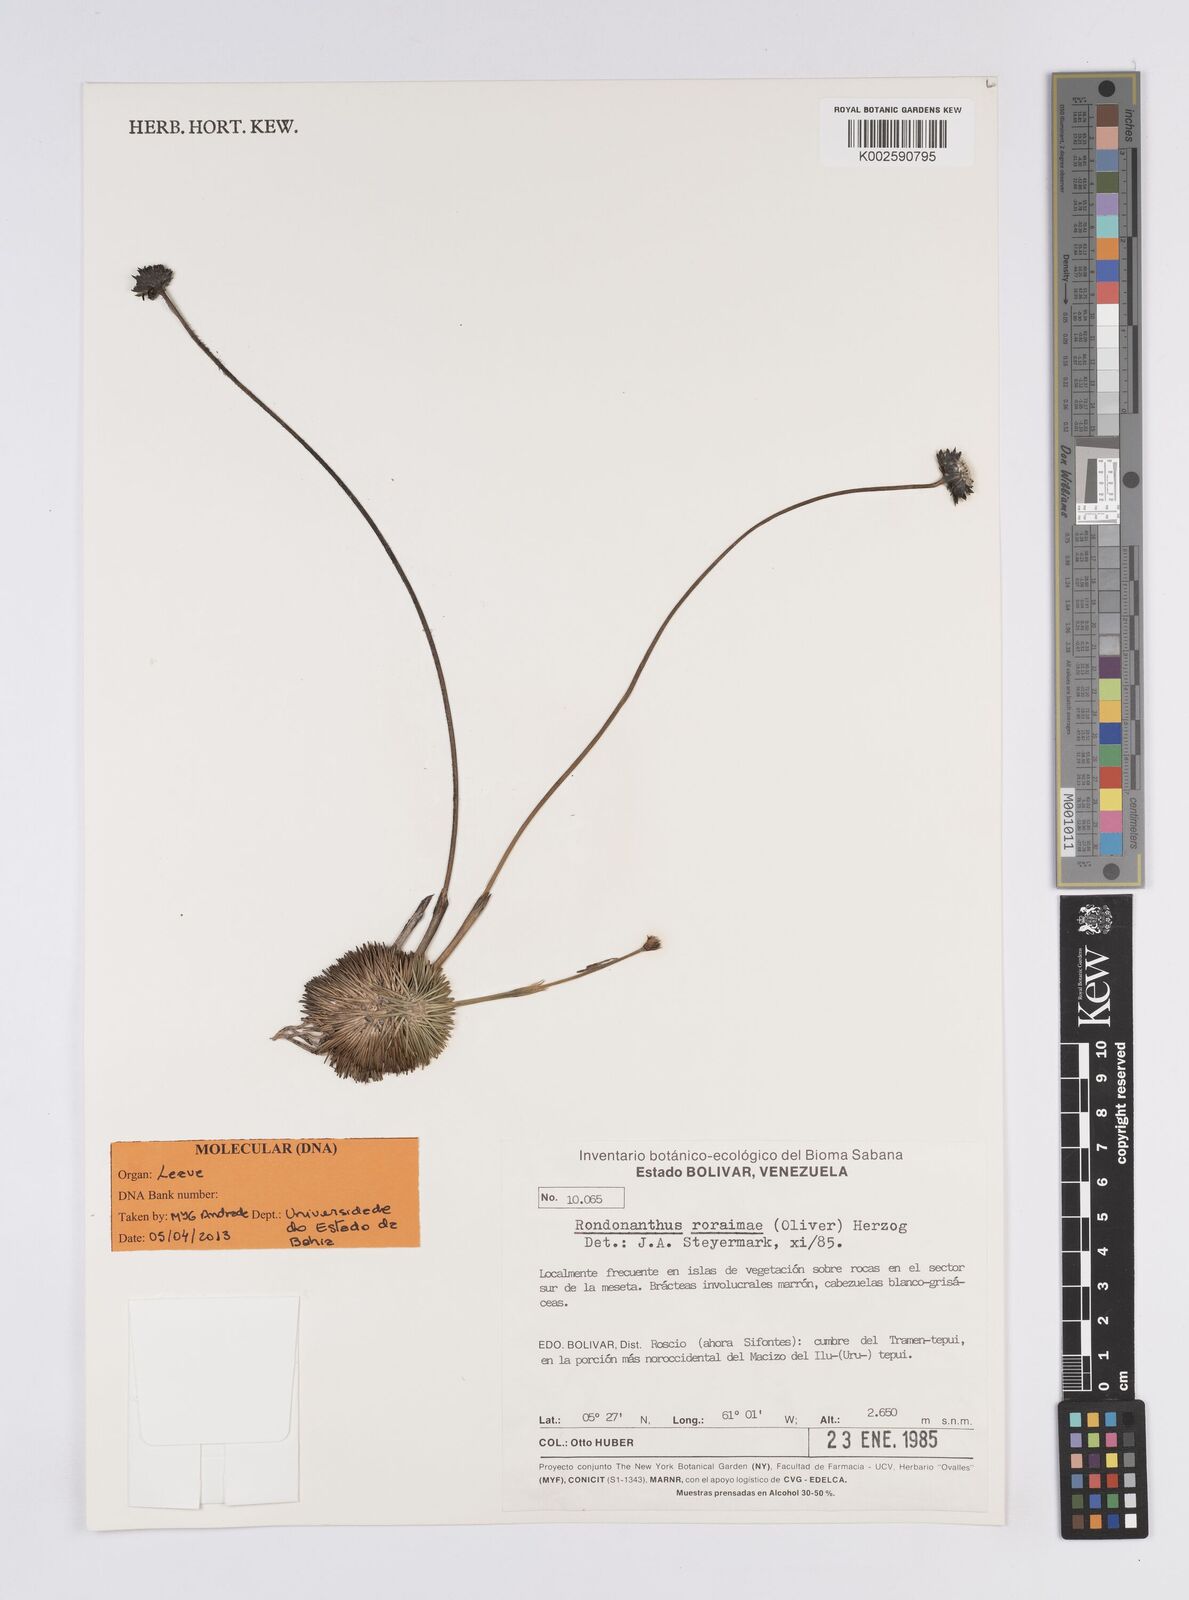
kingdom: Plantae
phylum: Tracheophyta
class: Liliopsida
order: Poales
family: Eriocaulaceae
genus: Rondonanthus
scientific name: Rondonanthus roraimae
